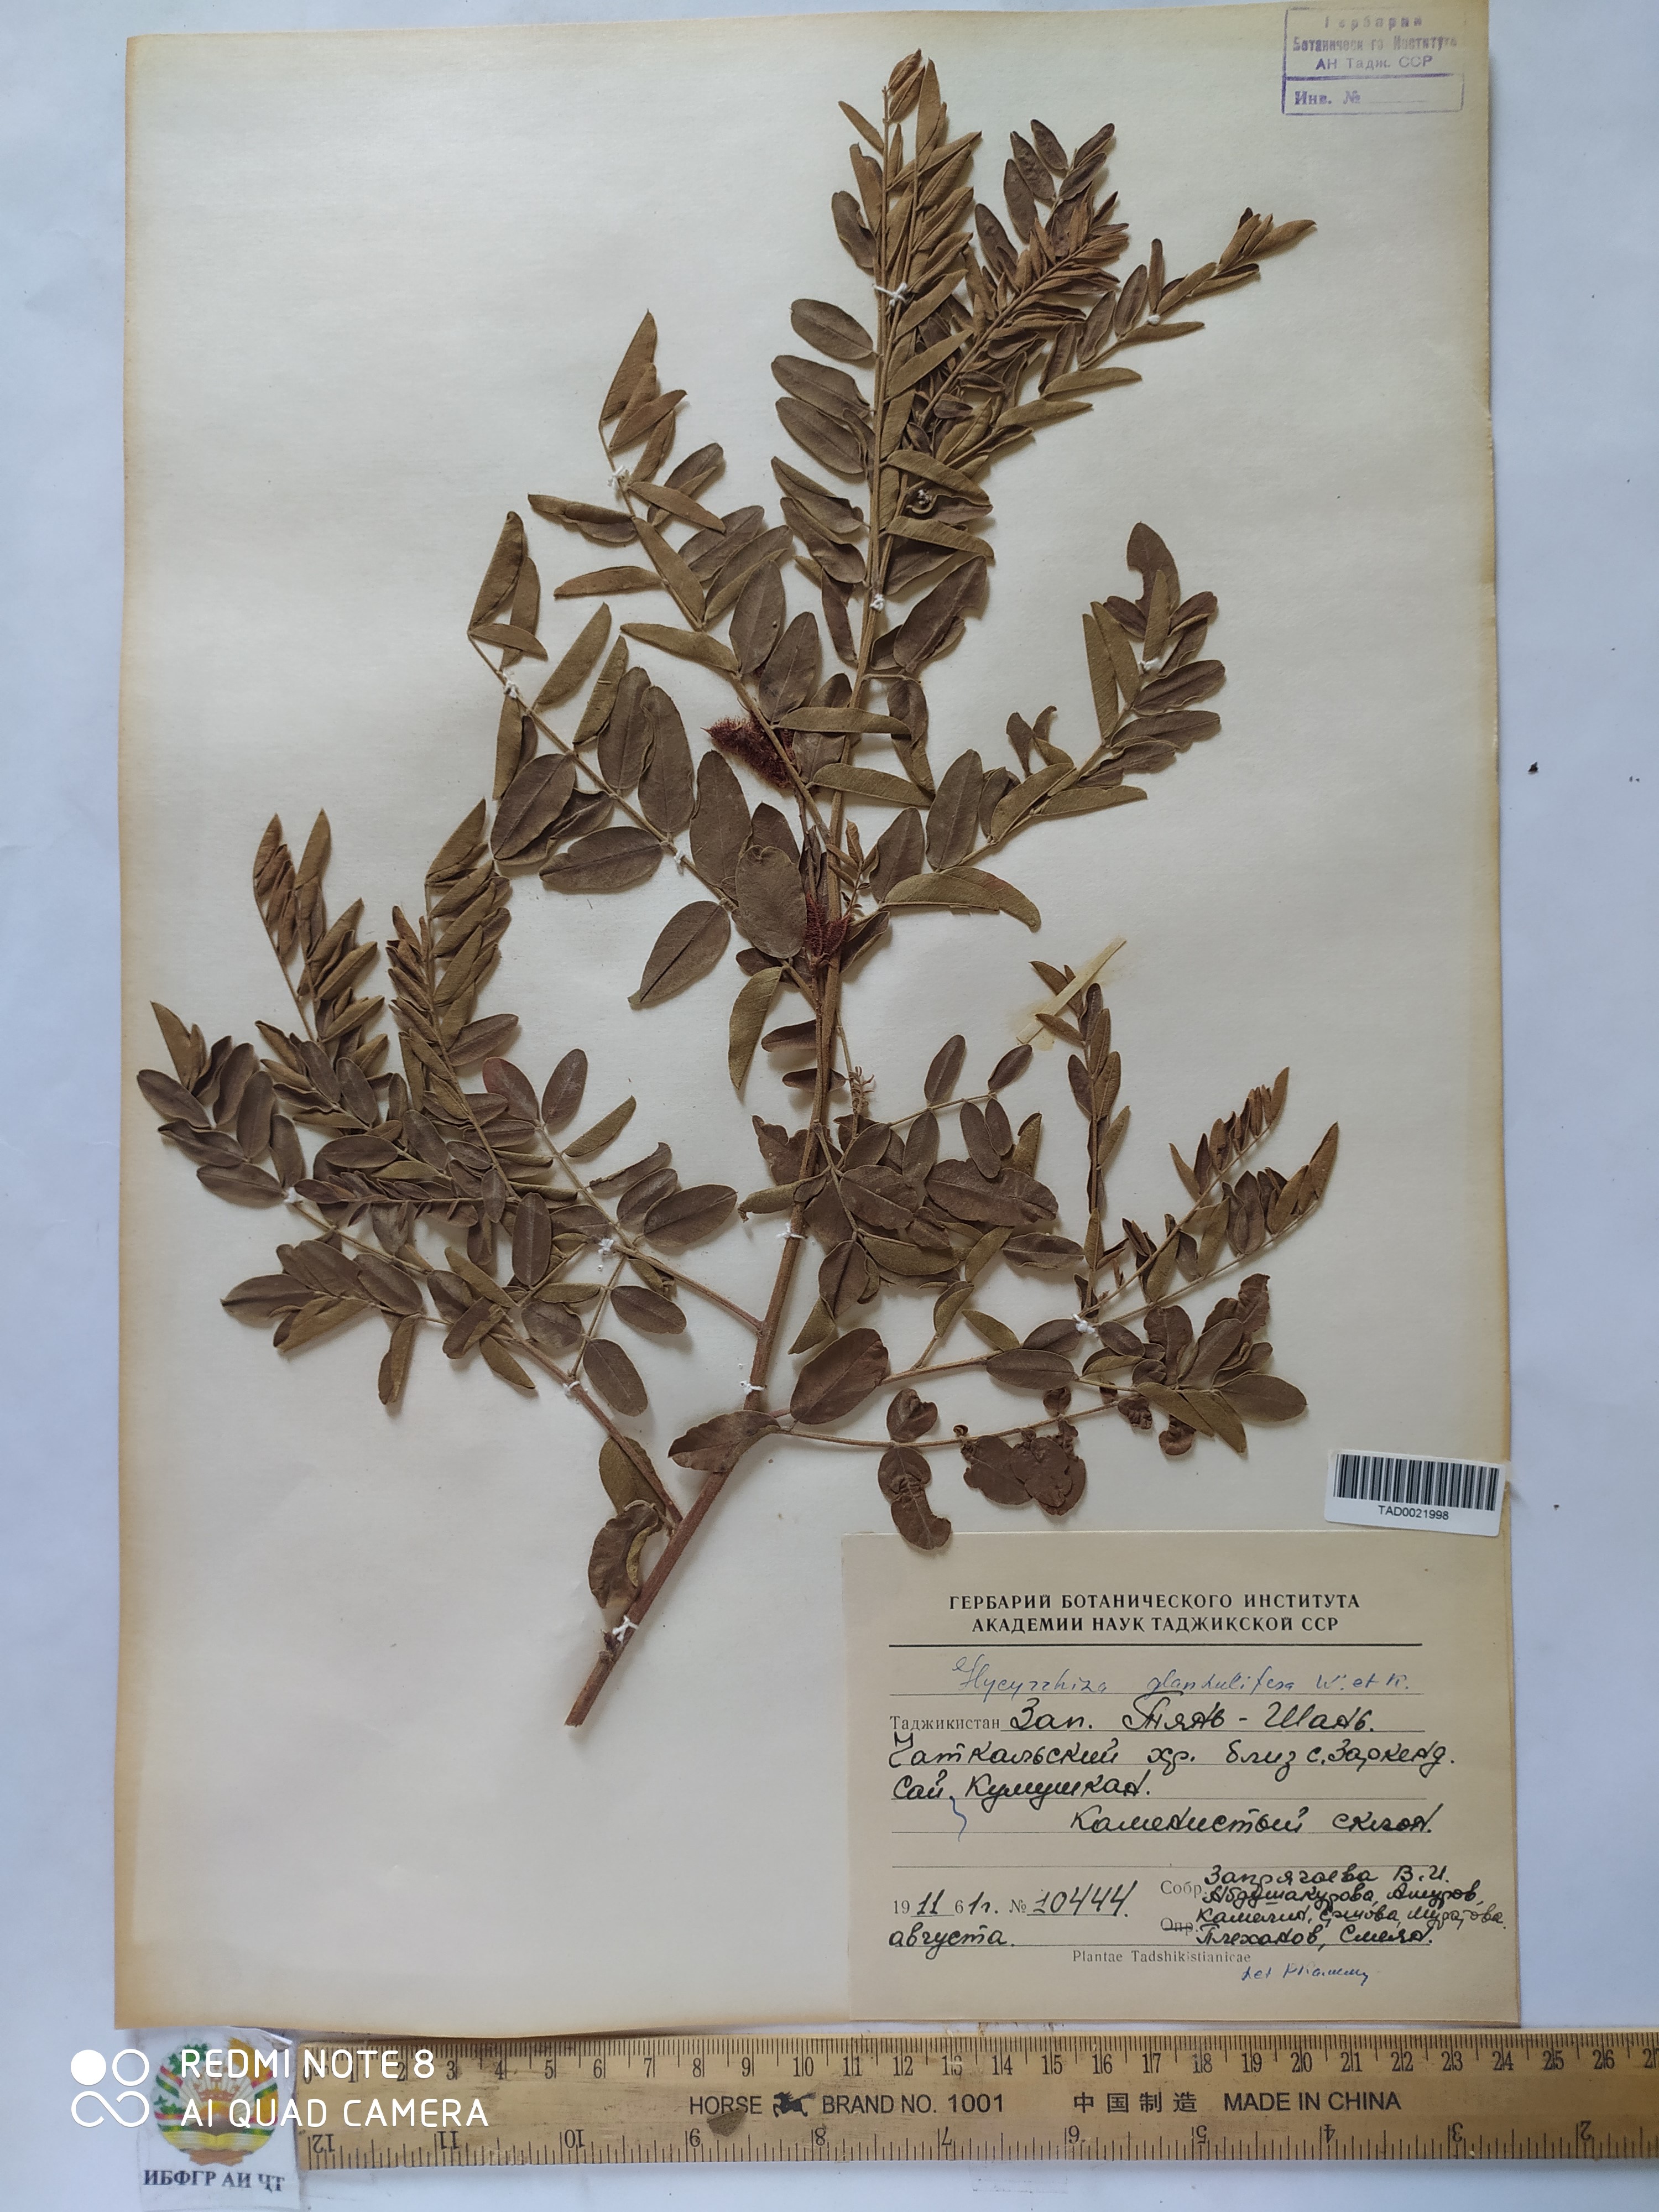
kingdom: Plantae
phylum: Tracheophyta
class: Magnoliopsida
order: Fabales
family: Fabaceae
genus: Glycyrrhiza
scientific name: Glycyrrhiza glabra
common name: Liquorice
